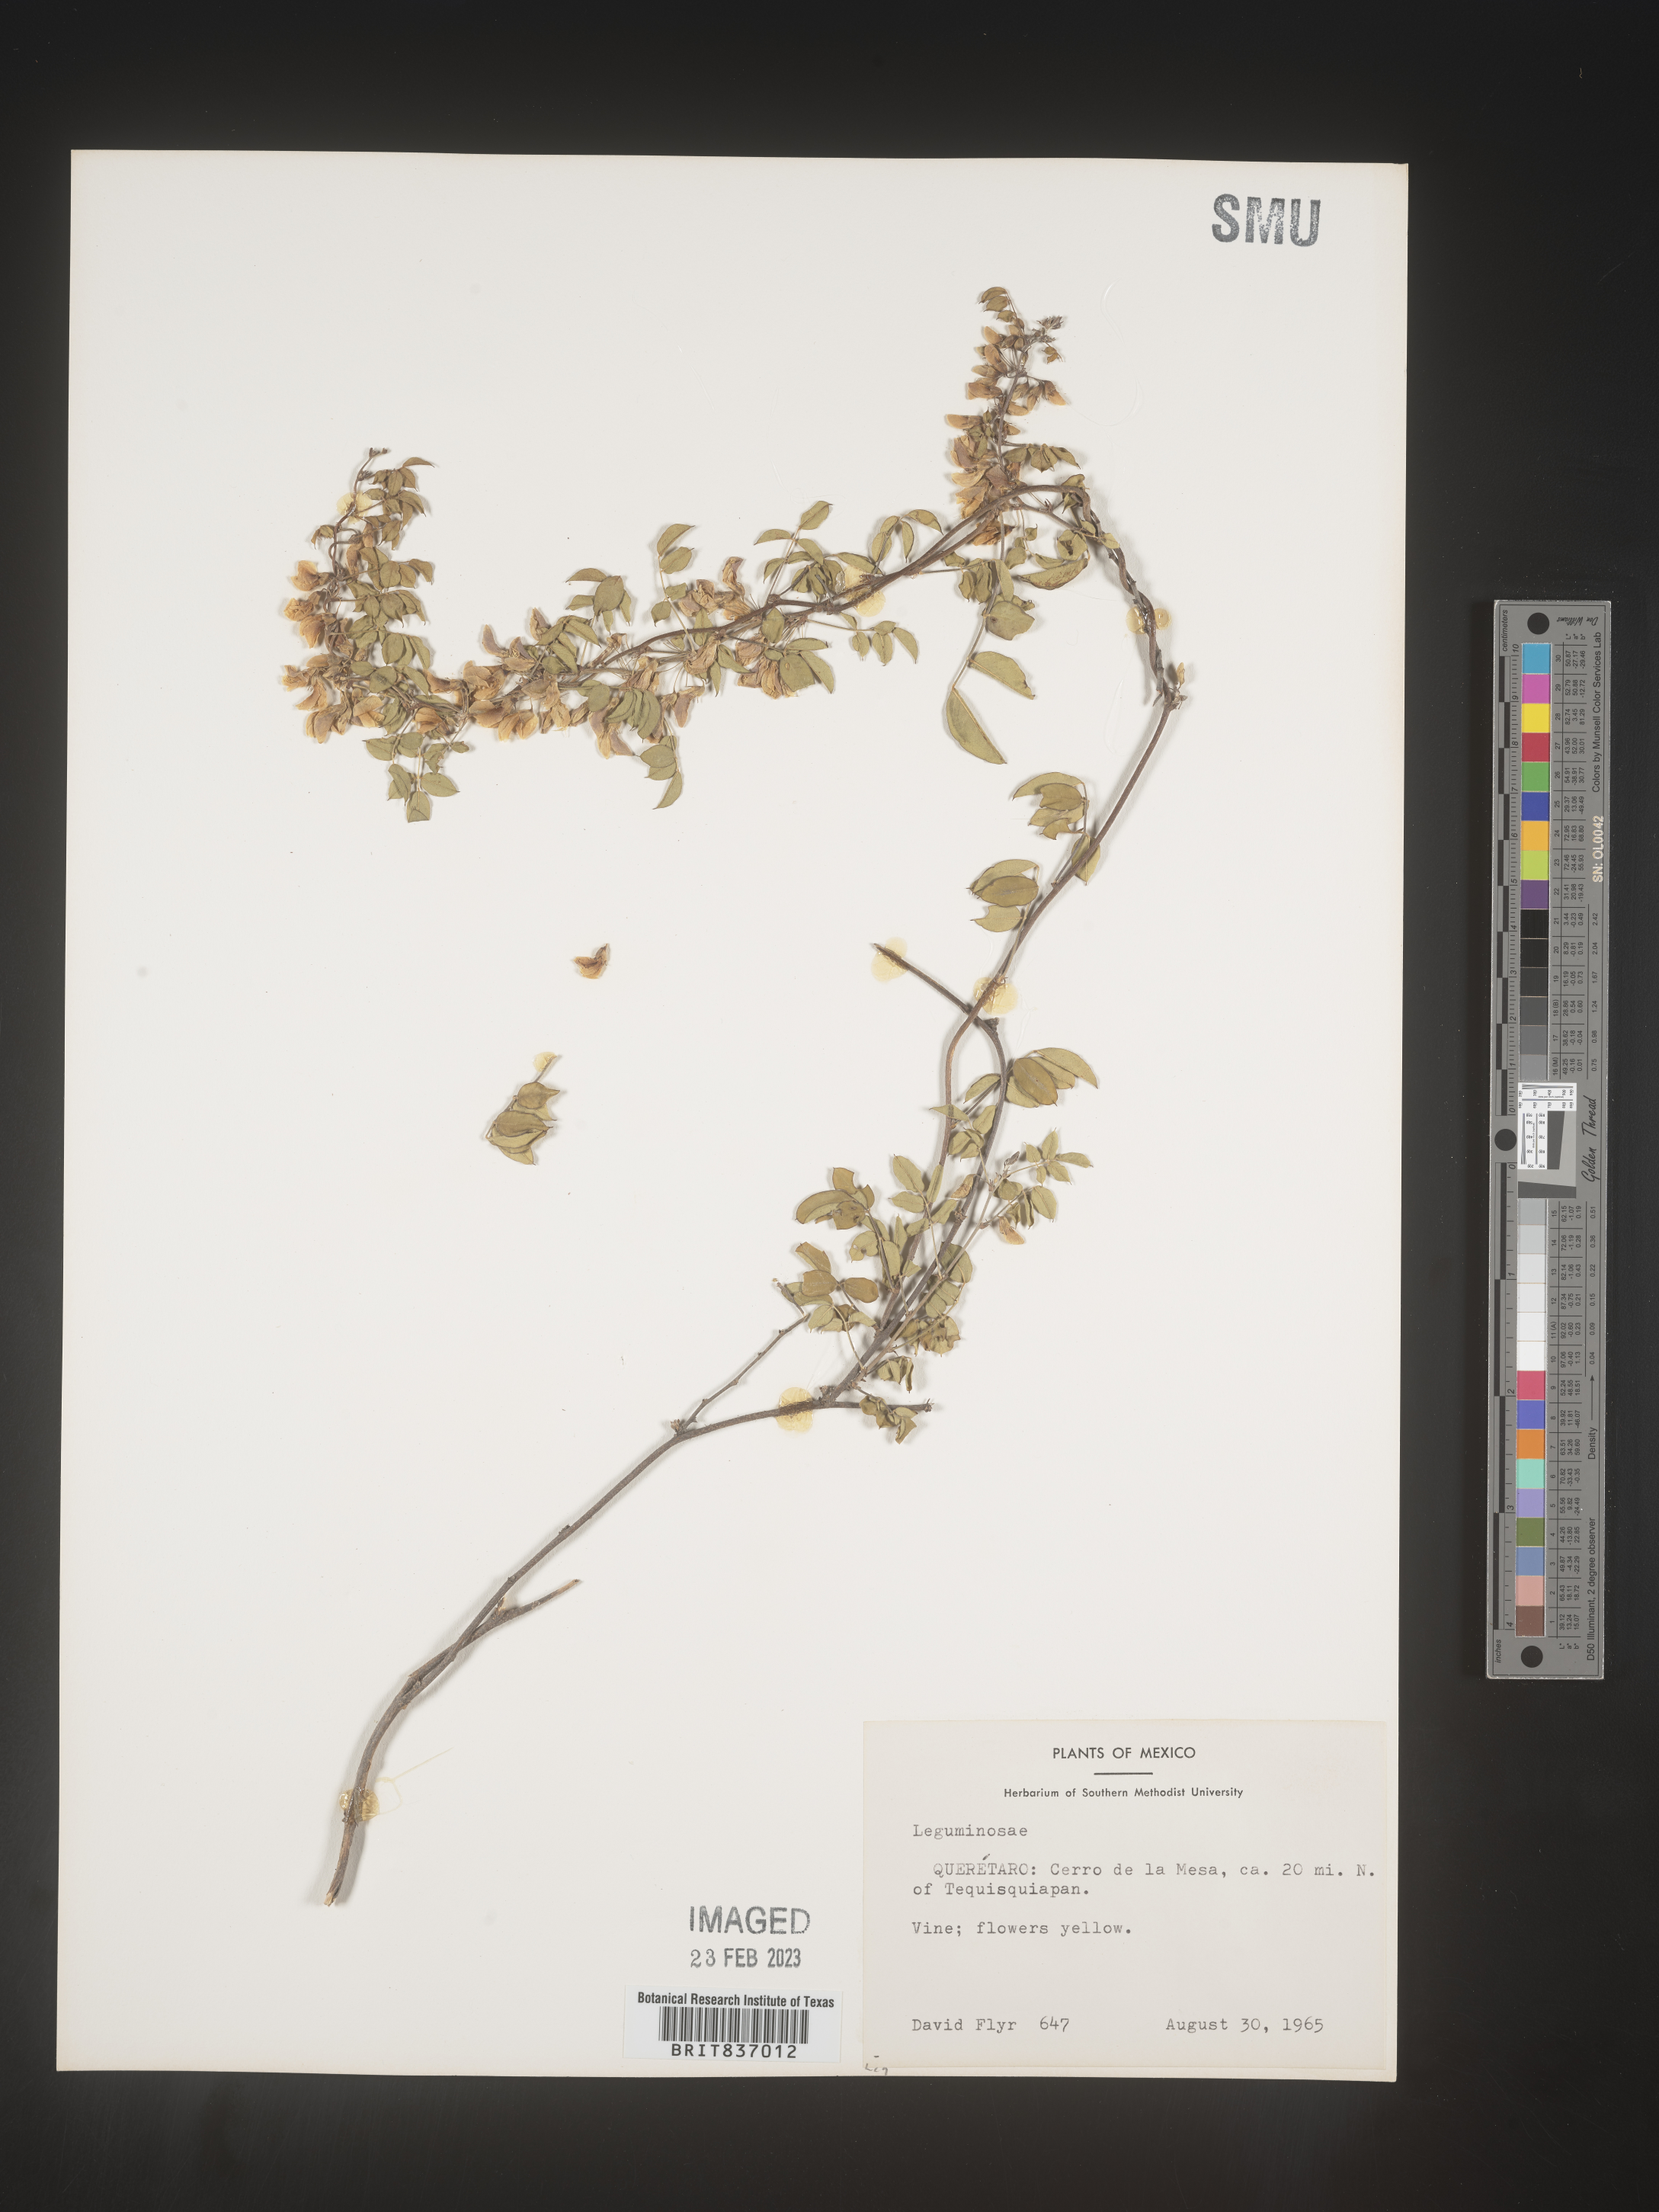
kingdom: Plantae
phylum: Tracheophyta
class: Magnoliopsida
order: Fabales
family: Fabaceae
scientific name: Fabaceae
